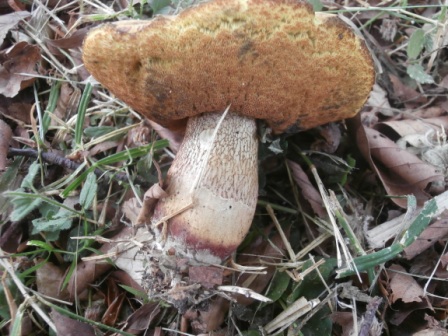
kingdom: Fungi
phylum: Basidiomycota
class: Agaricomycetes
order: Boletales
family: Boletaceae
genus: Suillellus
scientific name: Suillellus luridus
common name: netstokket indigorørhat
